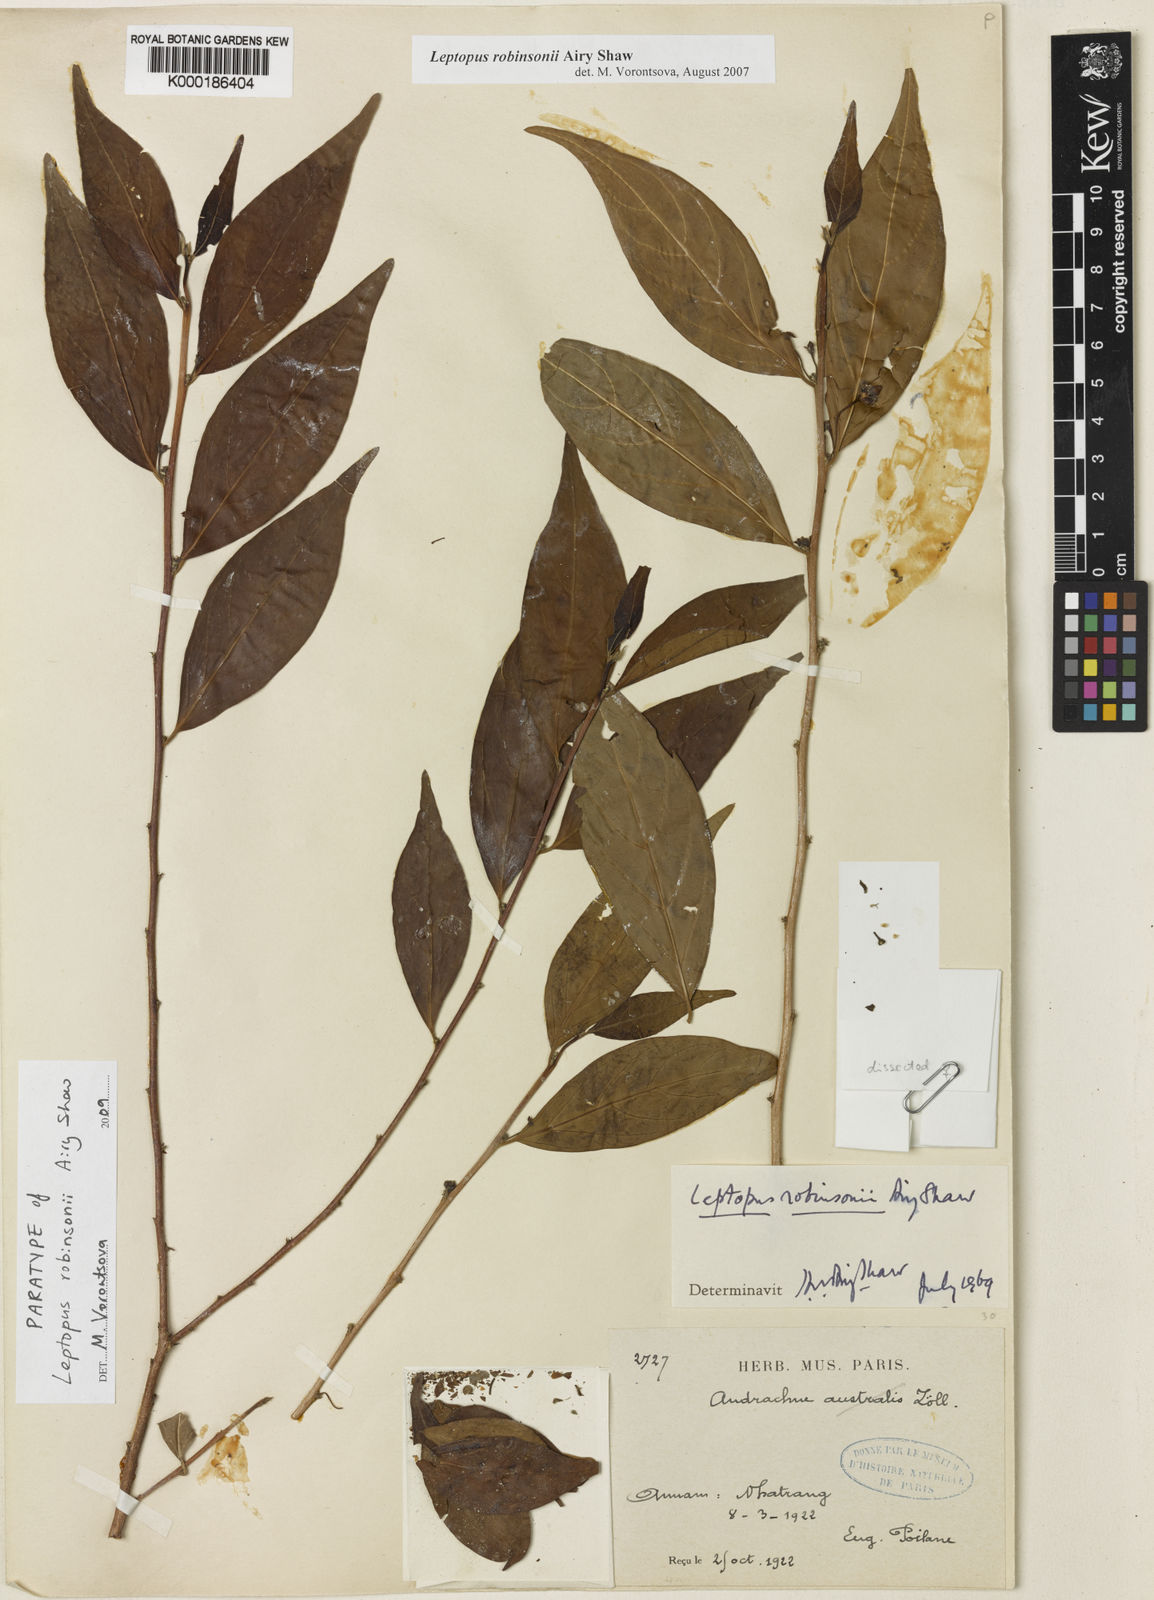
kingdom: Plantae
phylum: Tracheophyta
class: Magnoliopsida
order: Malpighiales
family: Phyllanthaceae
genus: Leptopus
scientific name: Leptopus robinsonii
